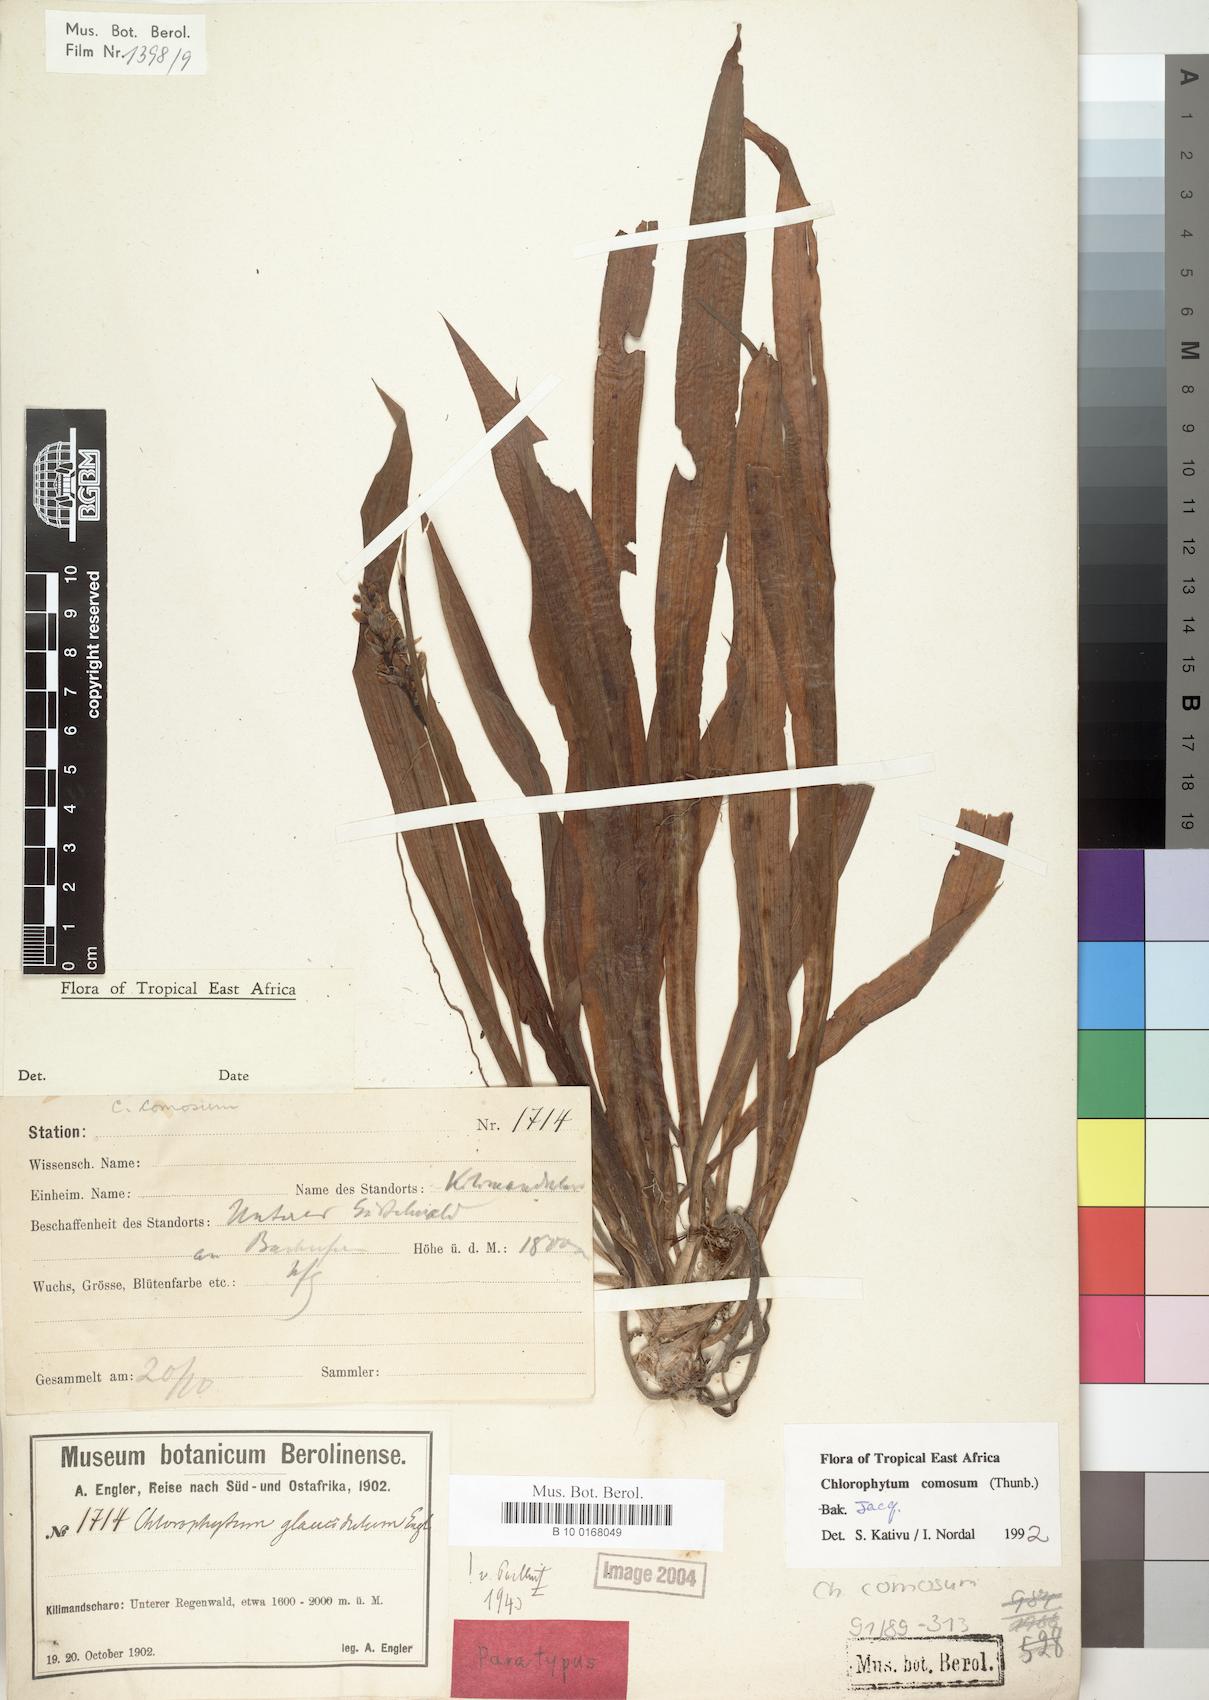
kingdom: Plantae
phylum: Tracheophyta
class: Liliopsida
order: Asparagales
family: Asparagaceae
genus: Chlorophytum
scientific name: Chlorophytum comosum
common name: Spider plant
